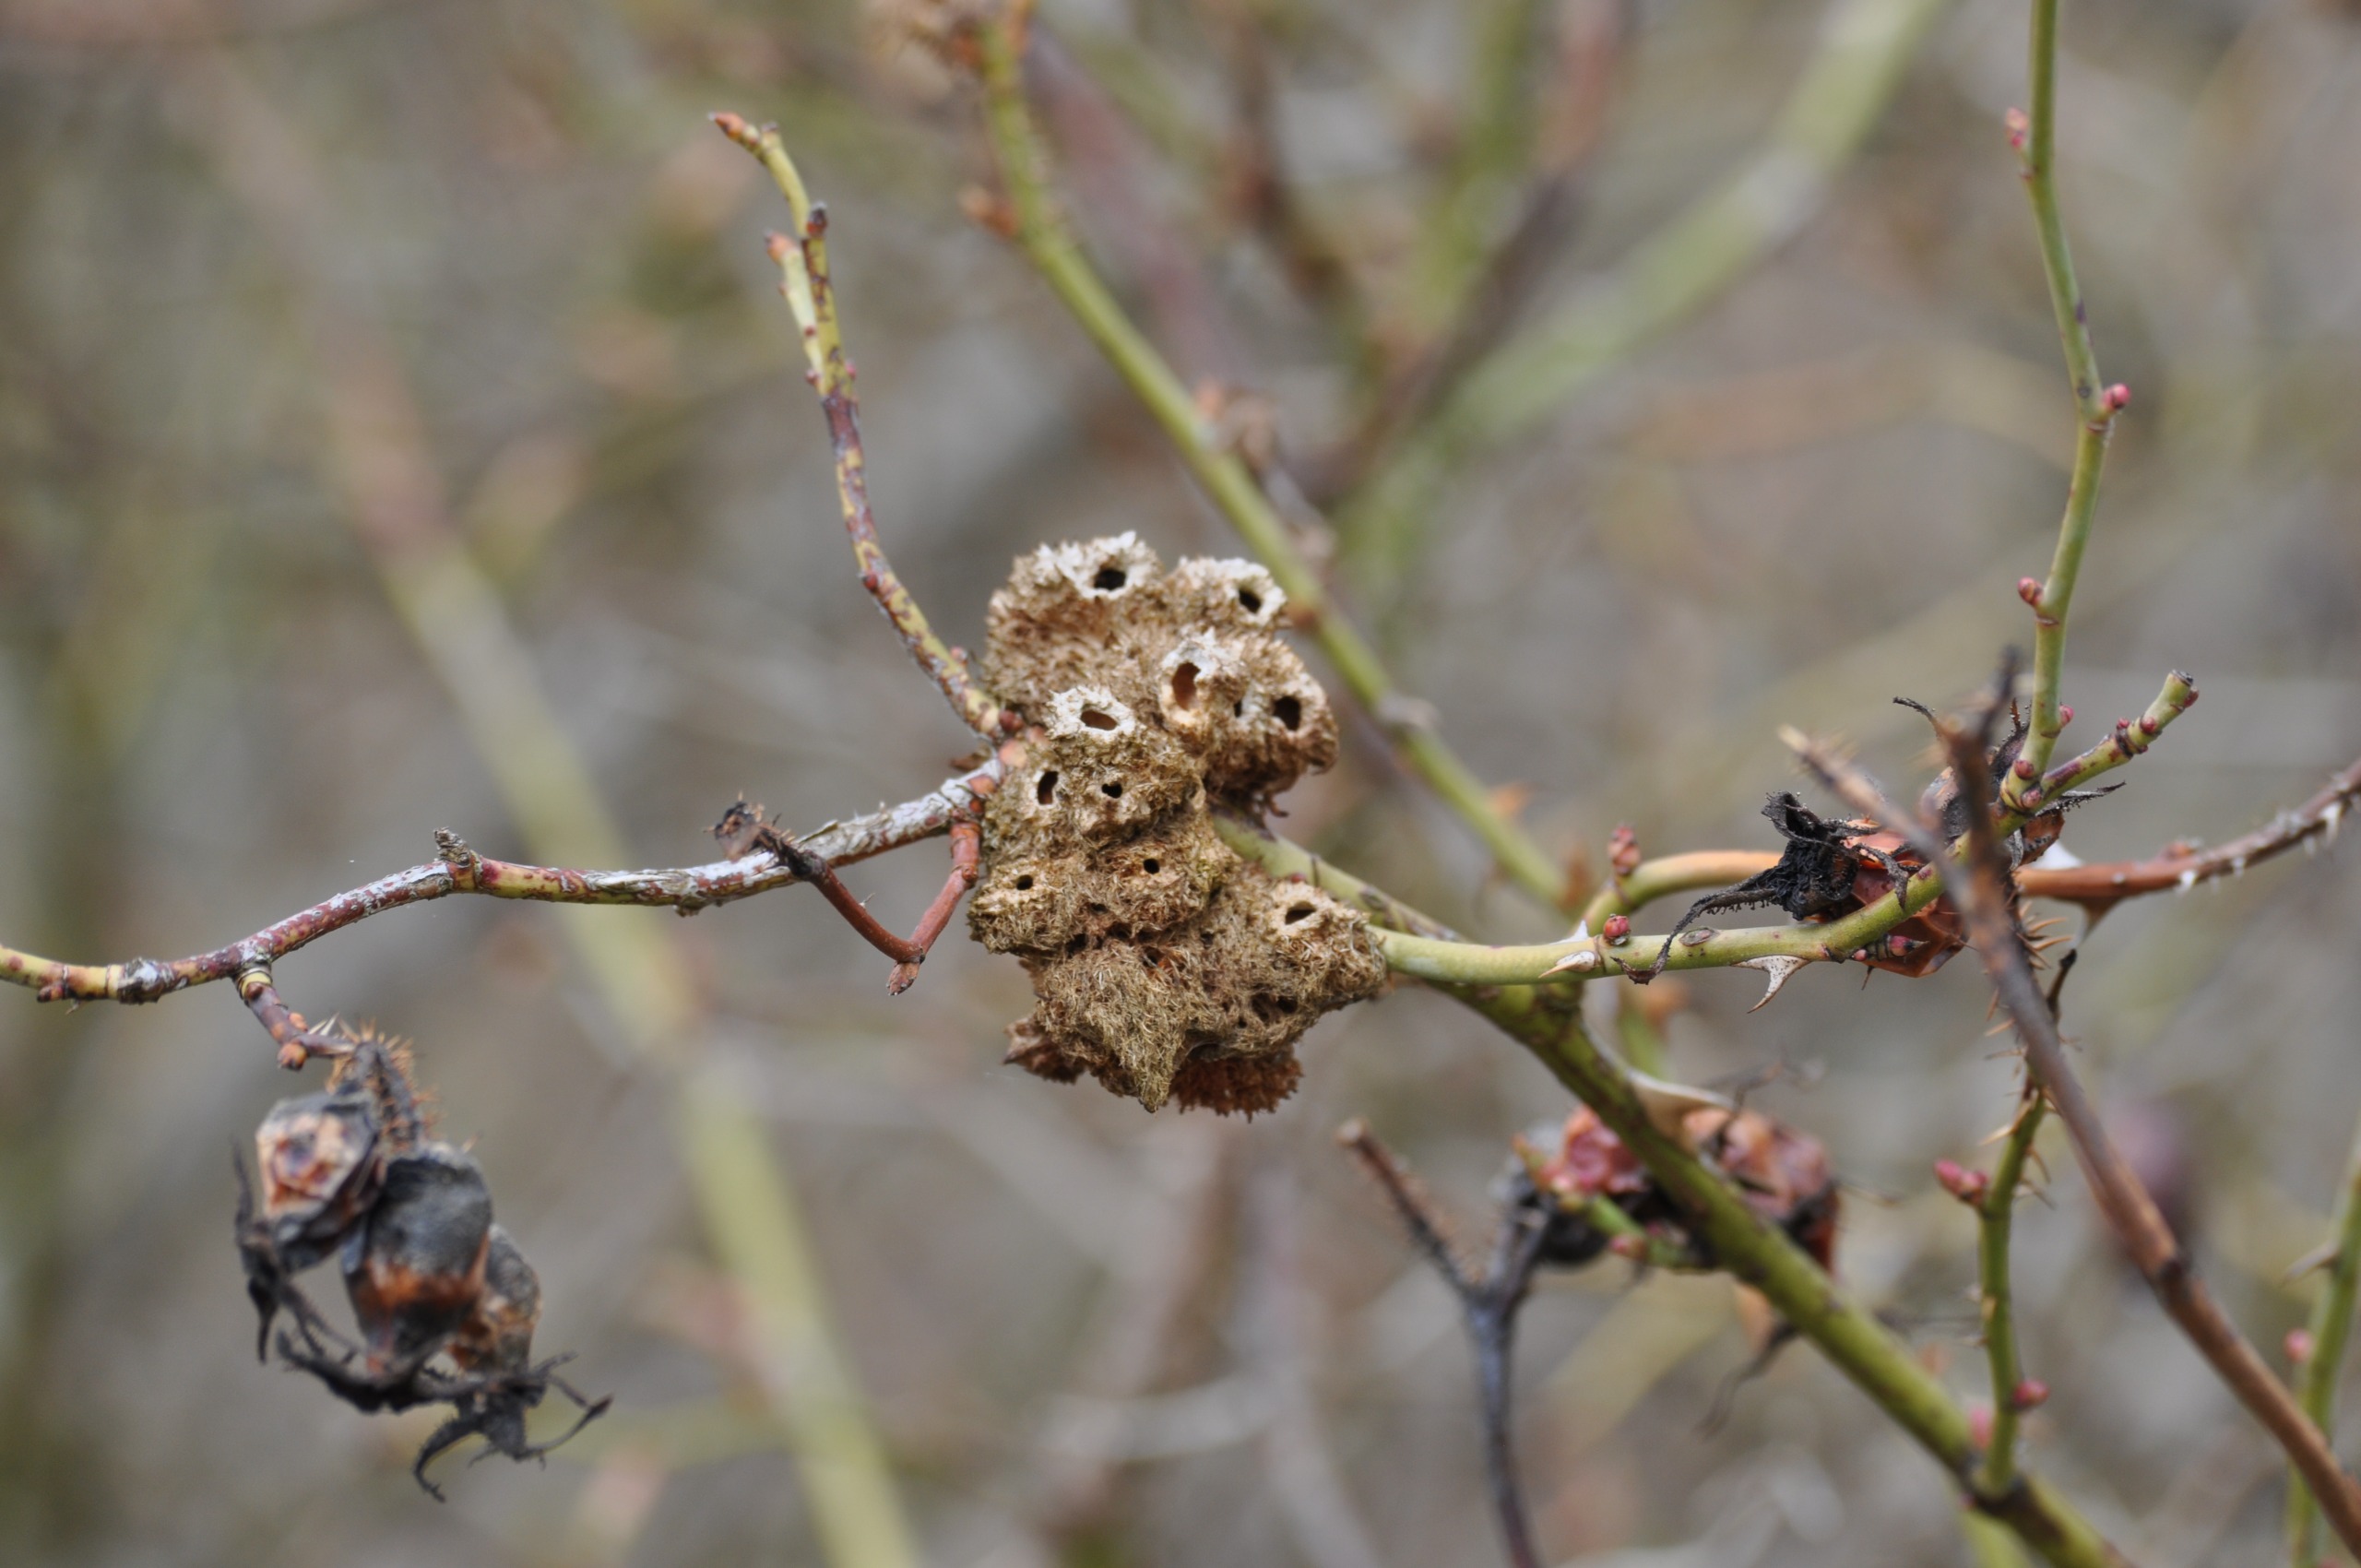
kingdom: Animalia
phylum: Arthropoda
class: Insecta
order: Hymenoptera
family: Cynipidae
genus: Diplolepis
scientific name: Diplolepis rosae
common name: Bedeguargalhveps
